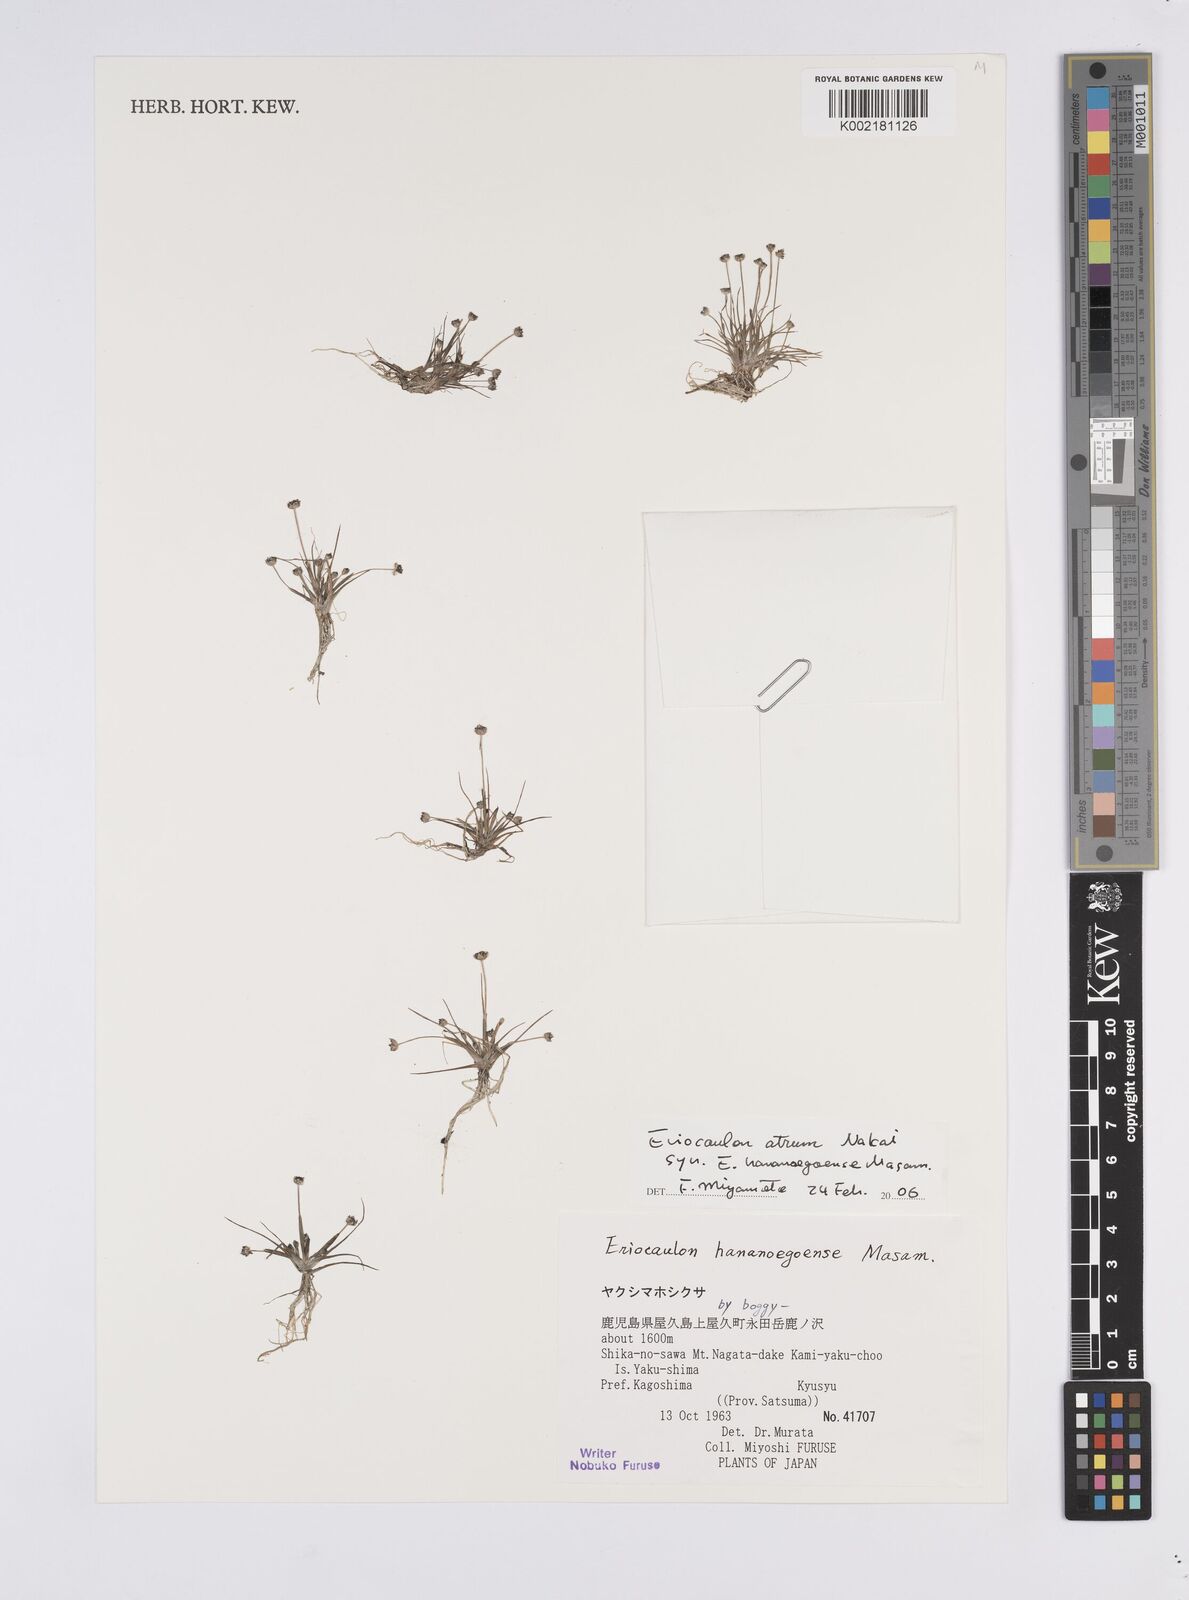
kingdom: Plantae
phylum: Tracheophyta
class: Liliopsida
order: Poales
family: Eriocaulaceae
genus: Eriocaulon
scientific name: Eriocaulon atrum
